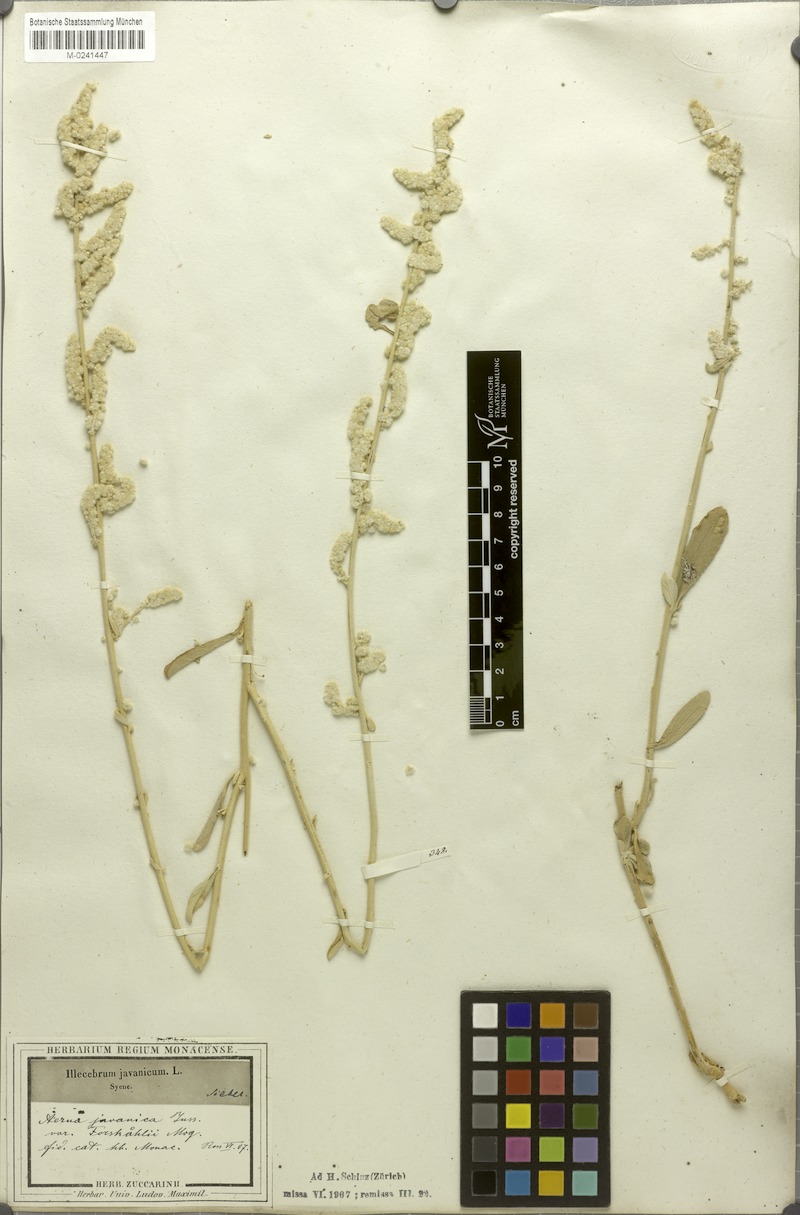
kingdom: Plantae
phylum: Tracheophyta
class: Magnoliopsida
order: Caryophyllales
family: Amaranthaceae
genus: Aerva
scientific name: Aerva javanica
